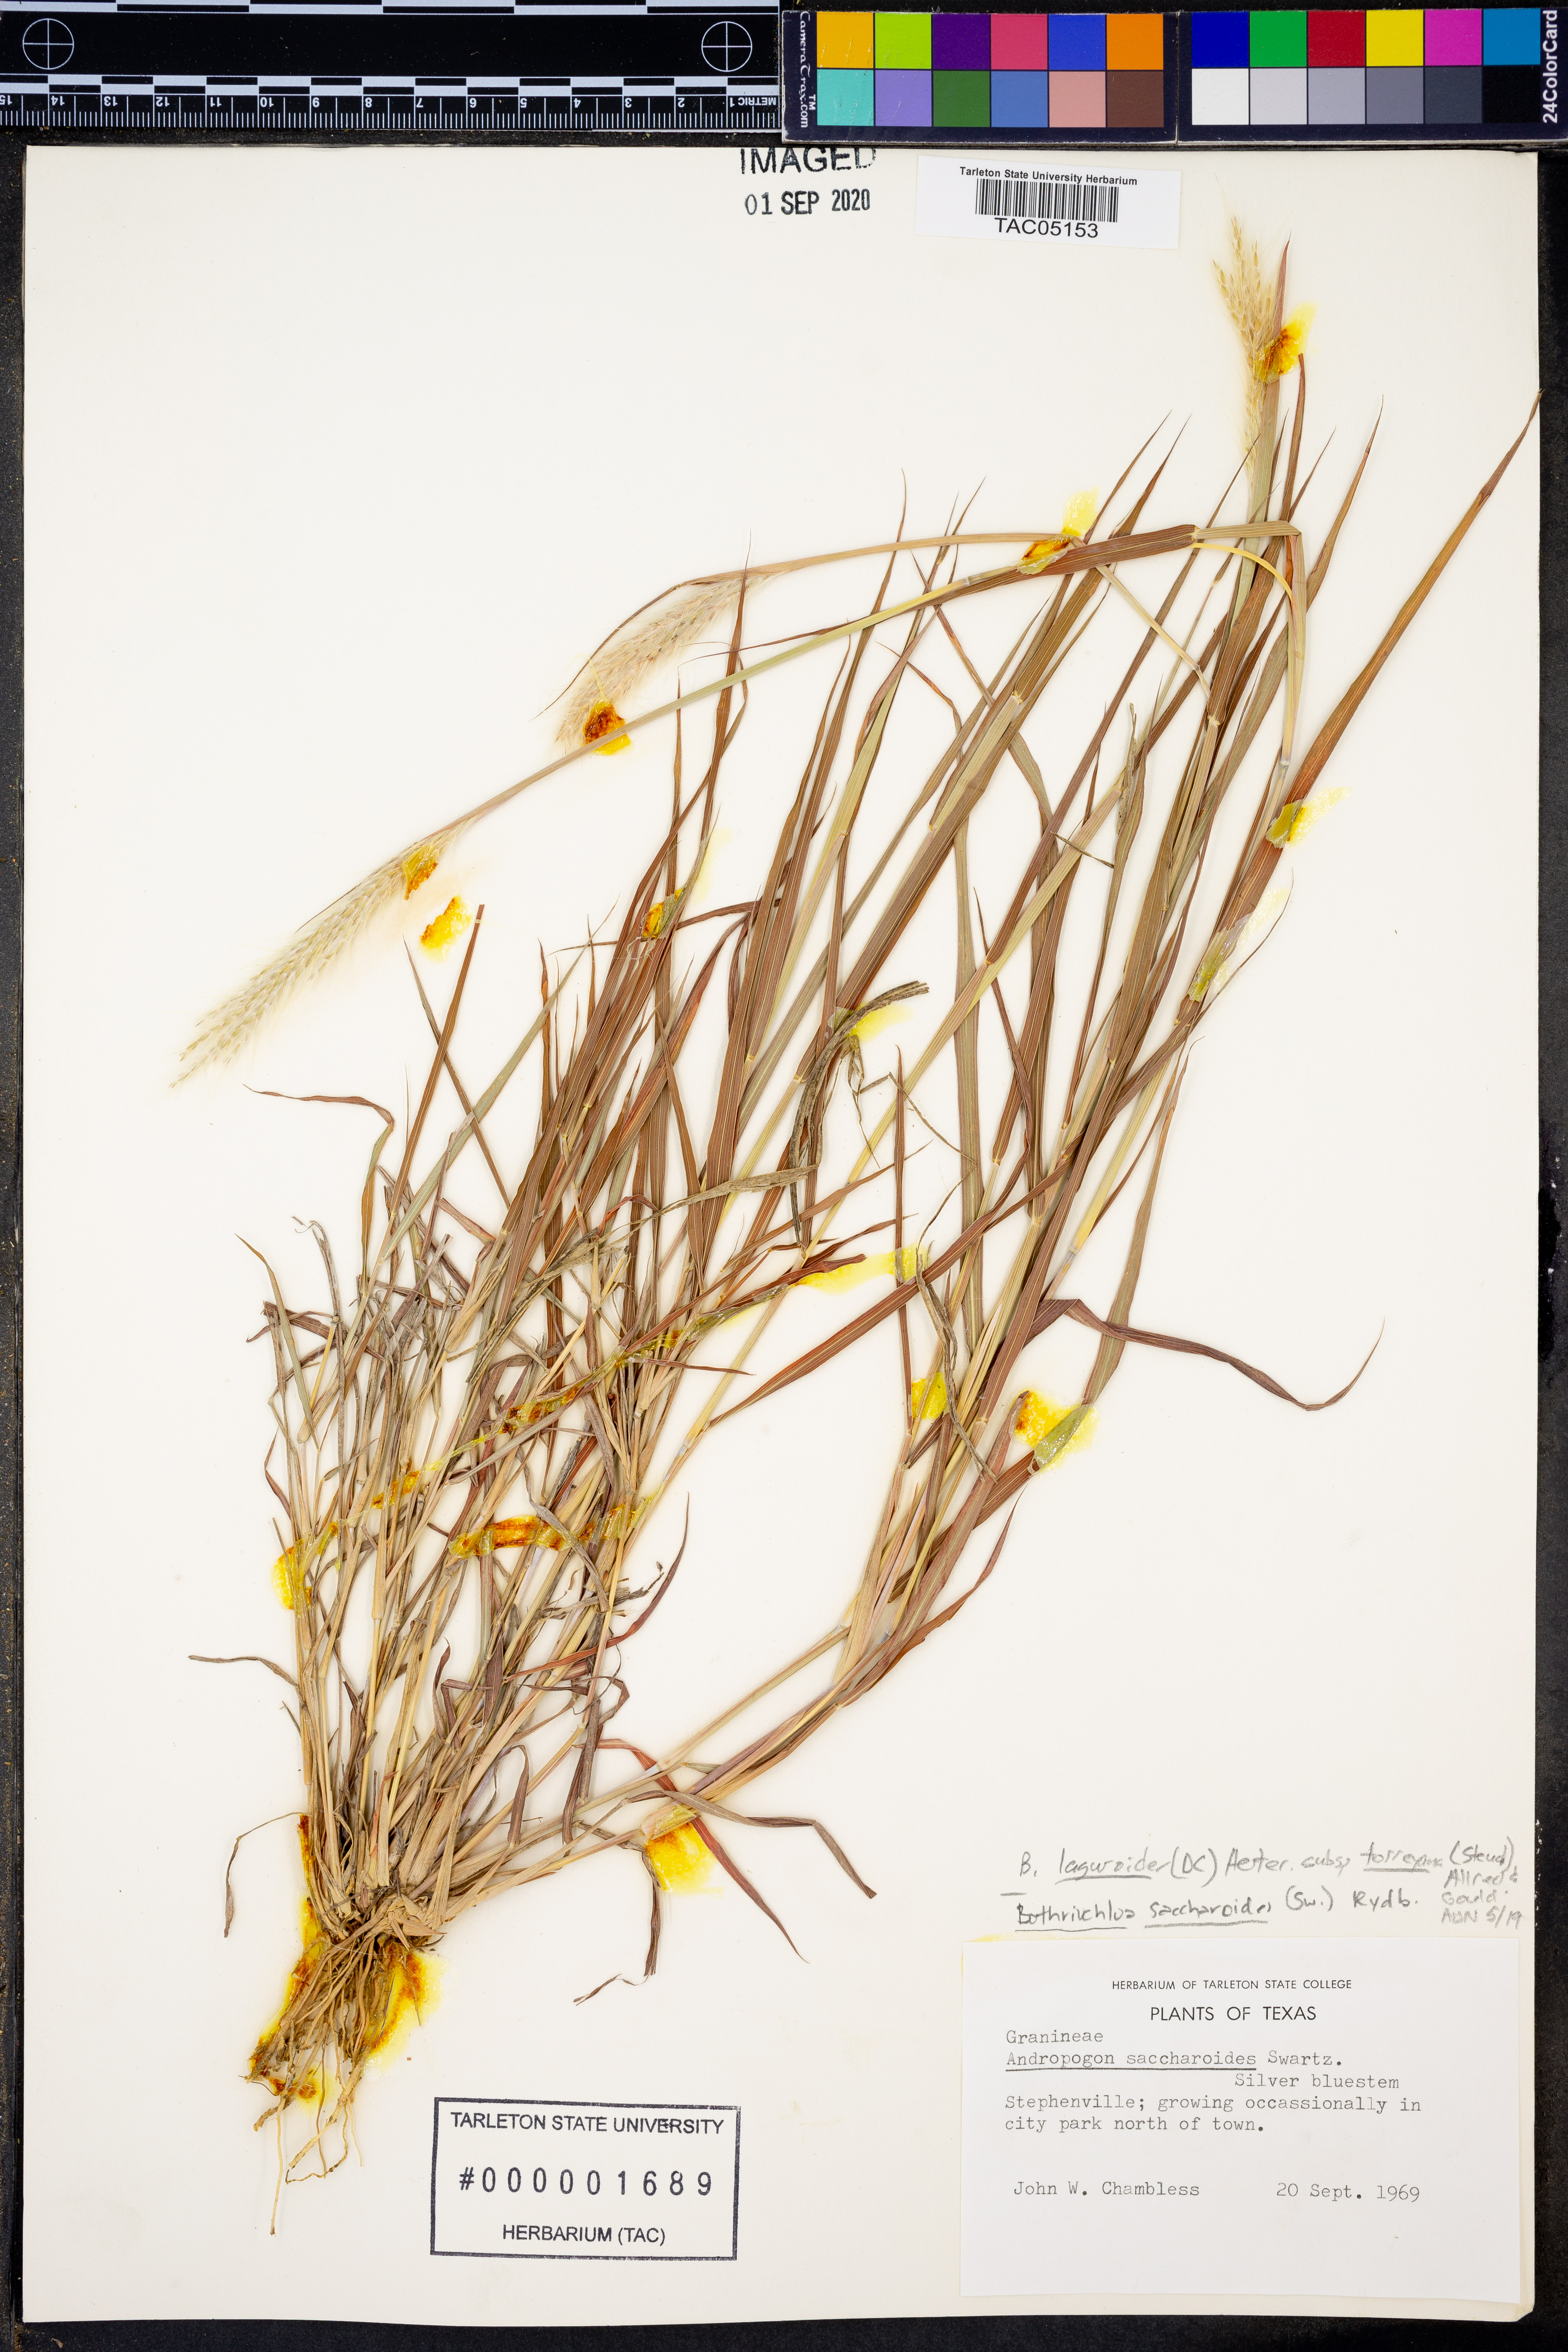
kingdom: Plantae
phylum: Tracheophyta
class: Liliopsida
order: Poales
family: Poaceae
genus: Bothriochloa
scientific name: Bothriochloa torreyana
